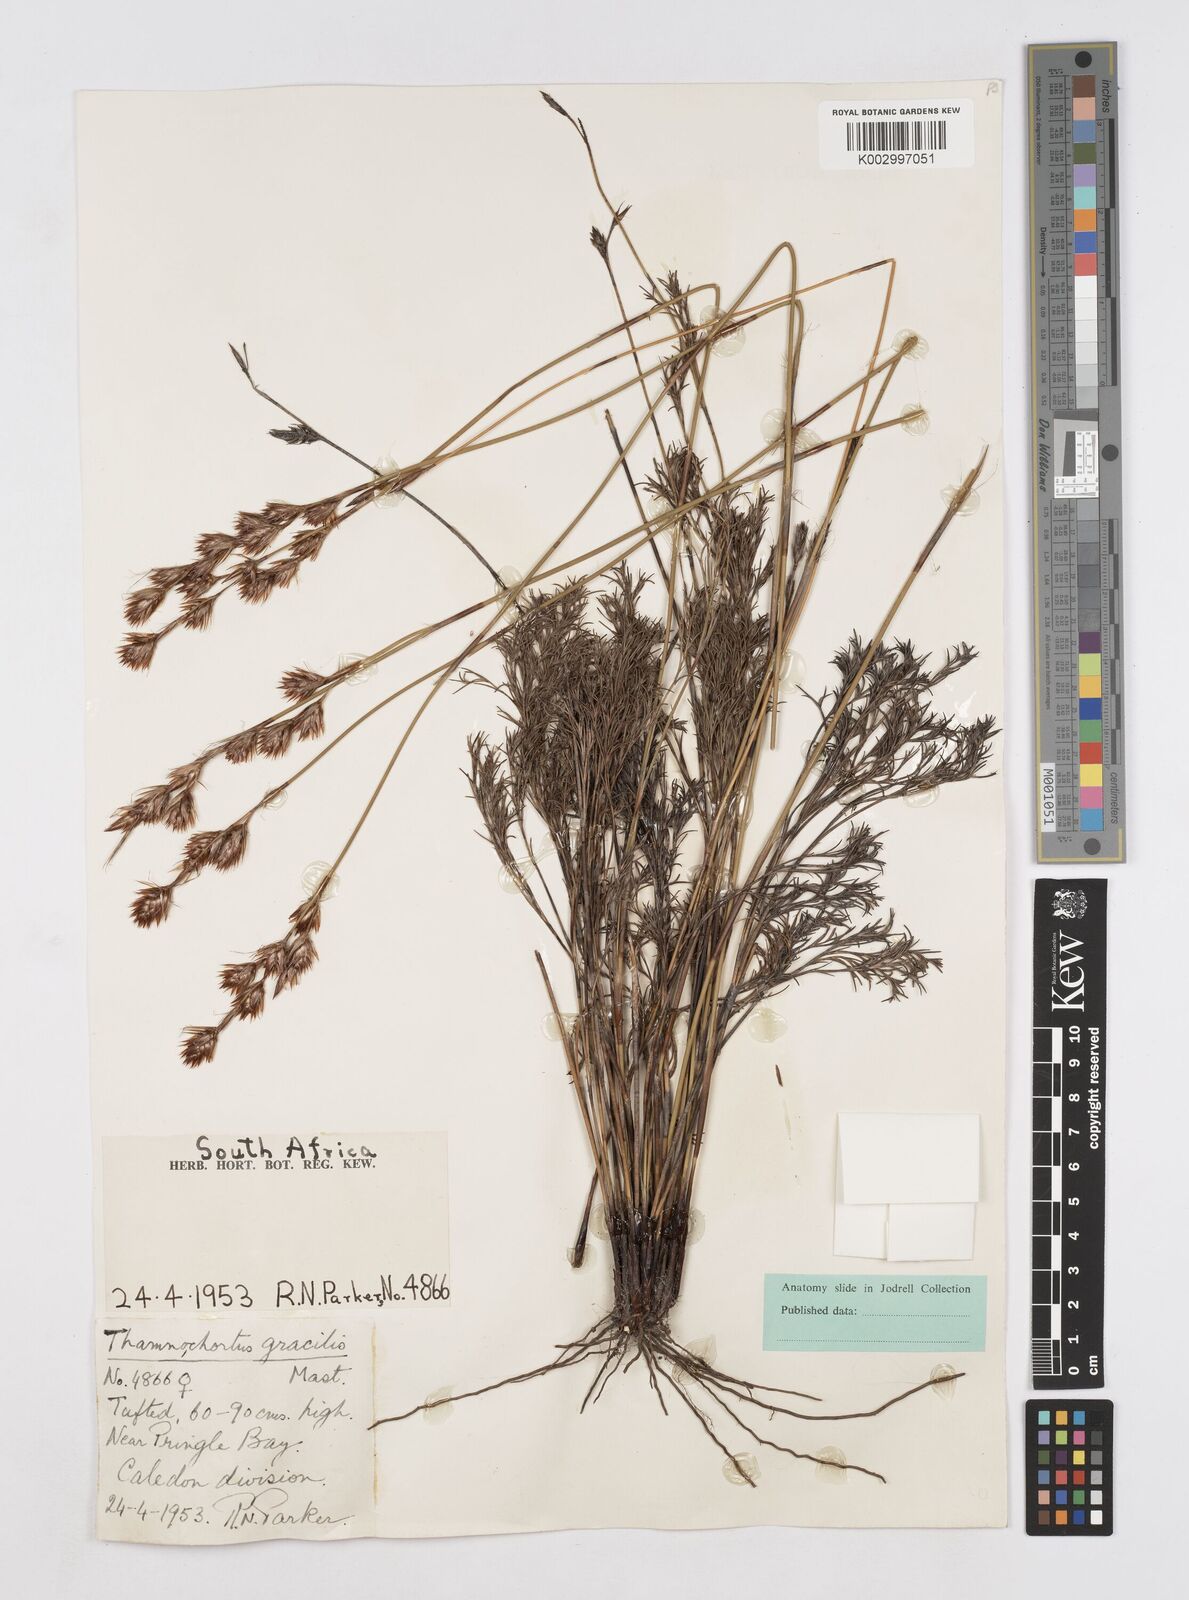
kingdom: Plantae
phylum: Tracheophyta
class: Liliopsida
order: Poales
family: Restionaceae
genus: Thamnochortus
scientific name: Thamnochortus gracilis
